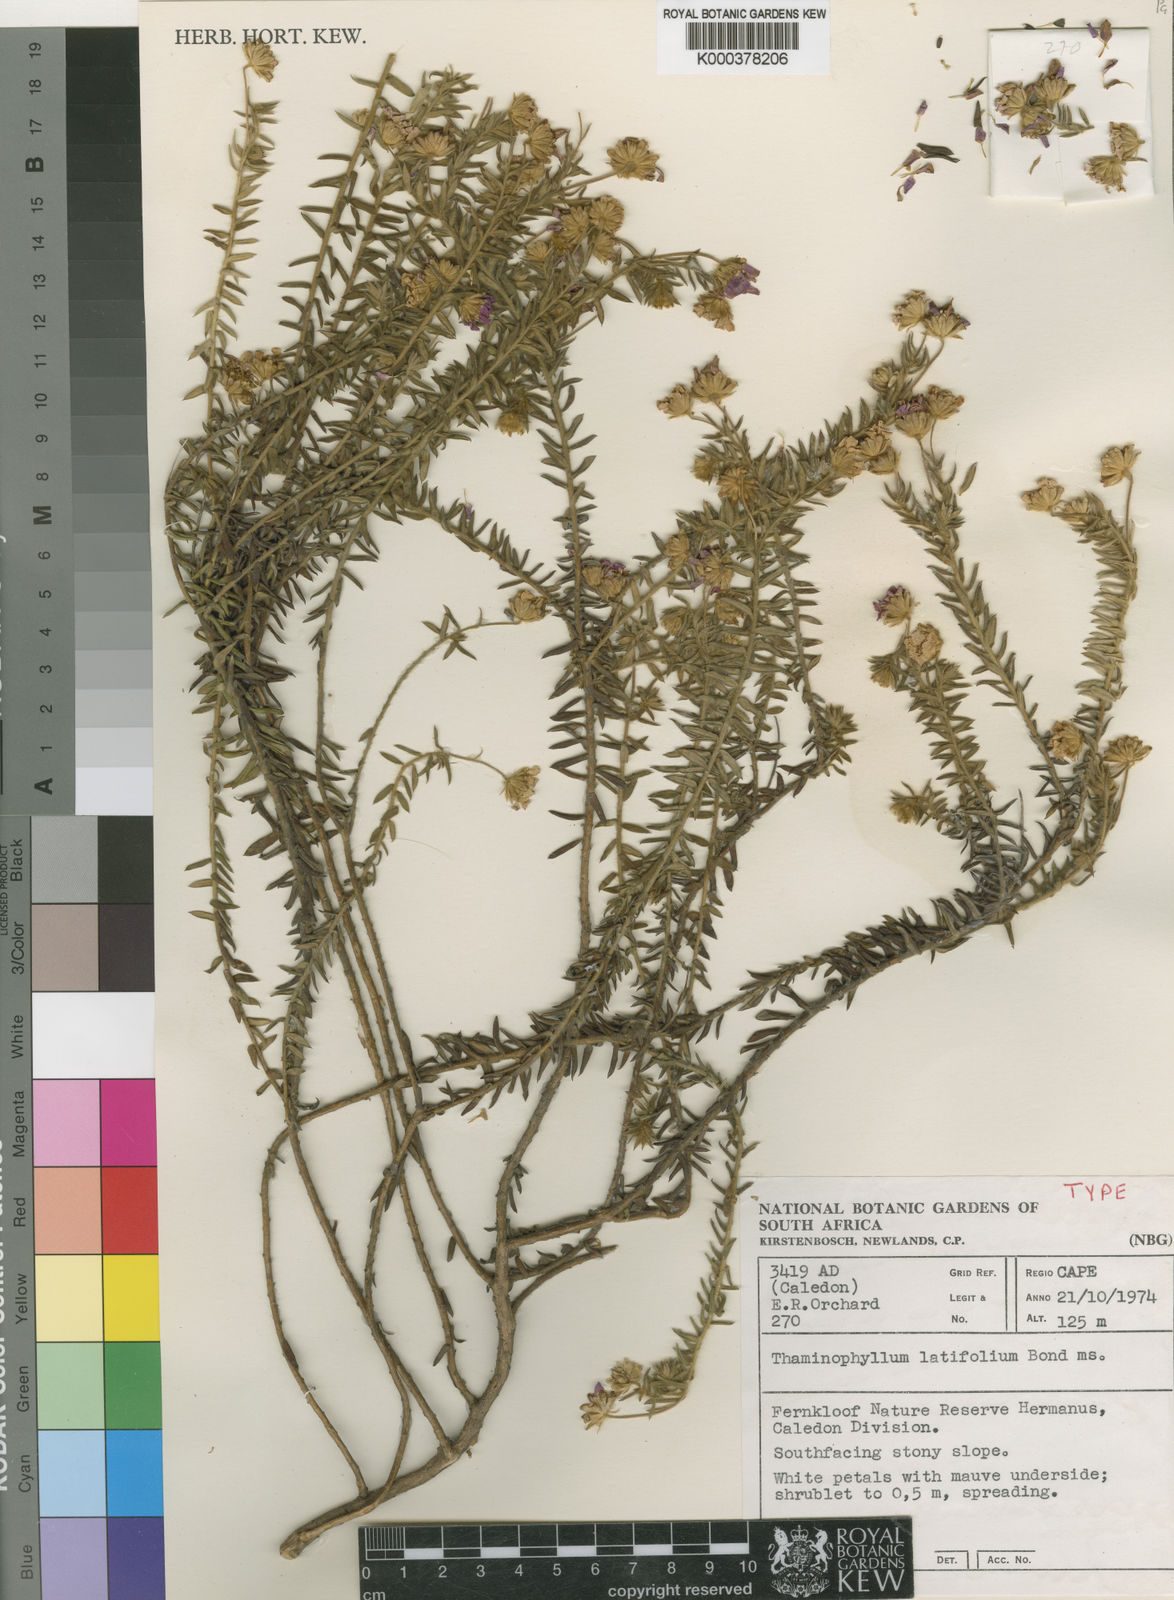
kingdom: Plantae
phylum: Tracheophyta
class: Magnoliopsida
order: Asterales
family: Asteraceae
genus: Thaminophyllum
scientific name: Thaminophyllum latifolium
